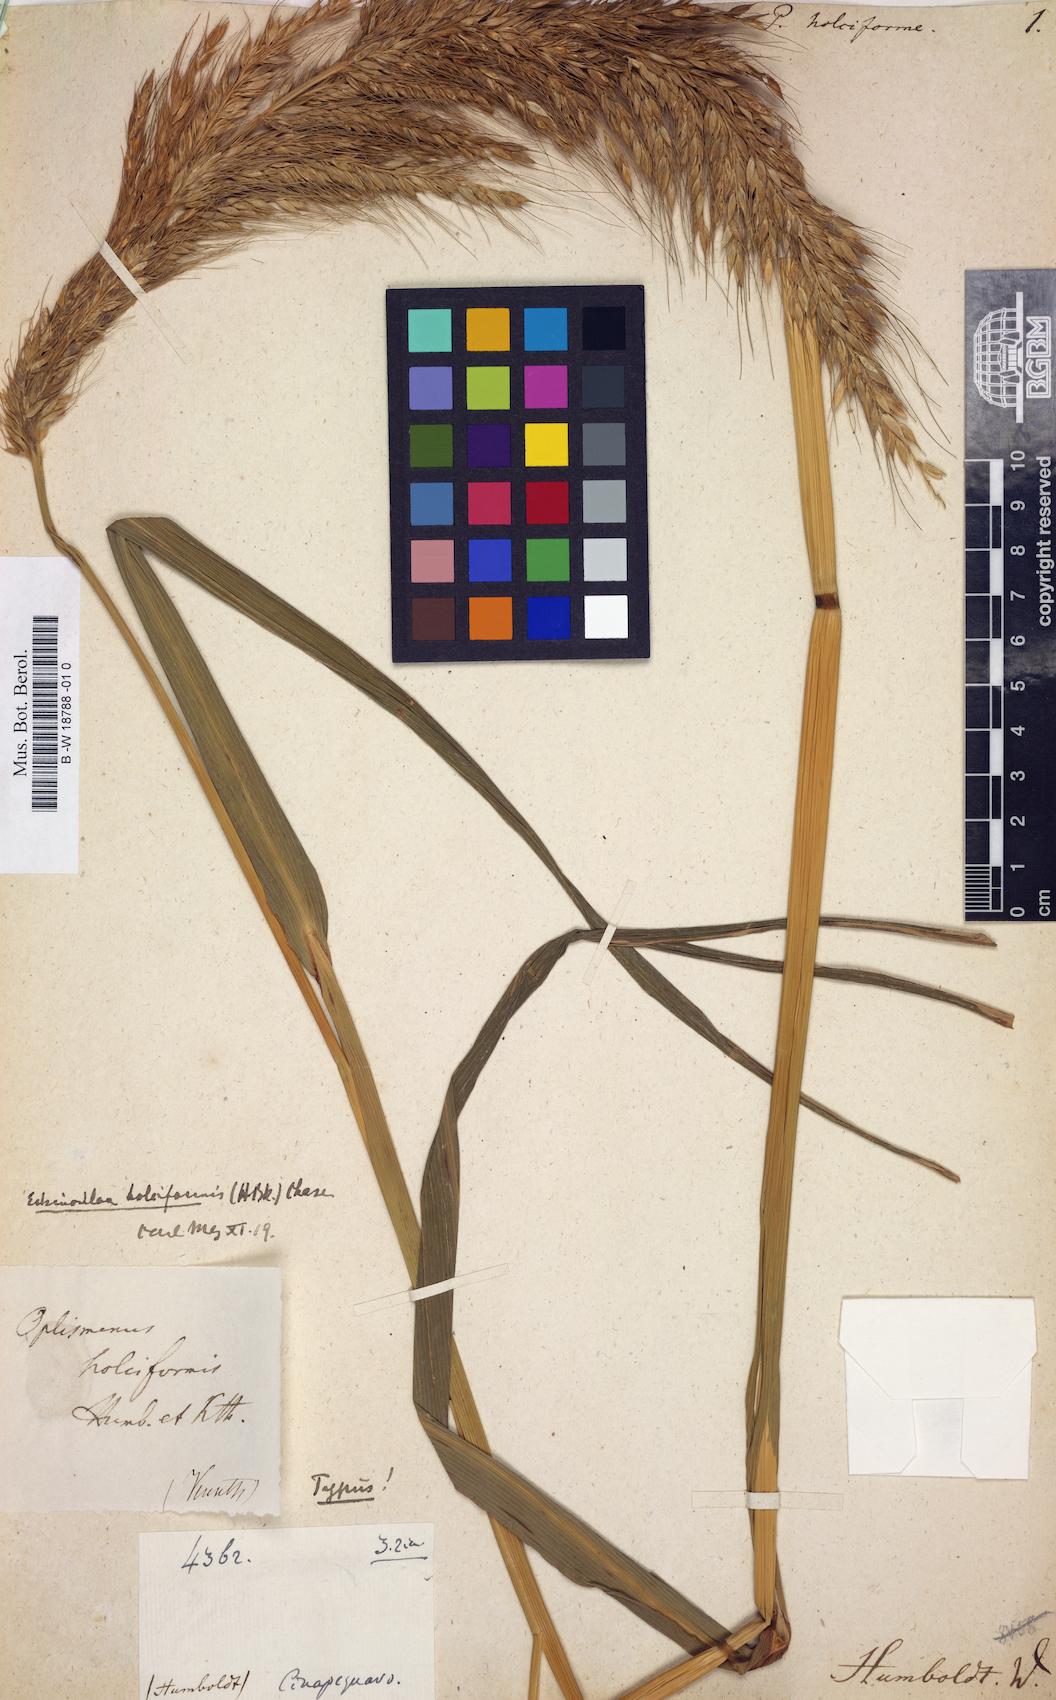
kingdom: Plantae
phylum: Tracheophyta
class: Liliopsida
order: Poales
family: Poaceae
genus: Echinochloa
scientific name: Echinochloa holciformis
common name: Decorative millet
